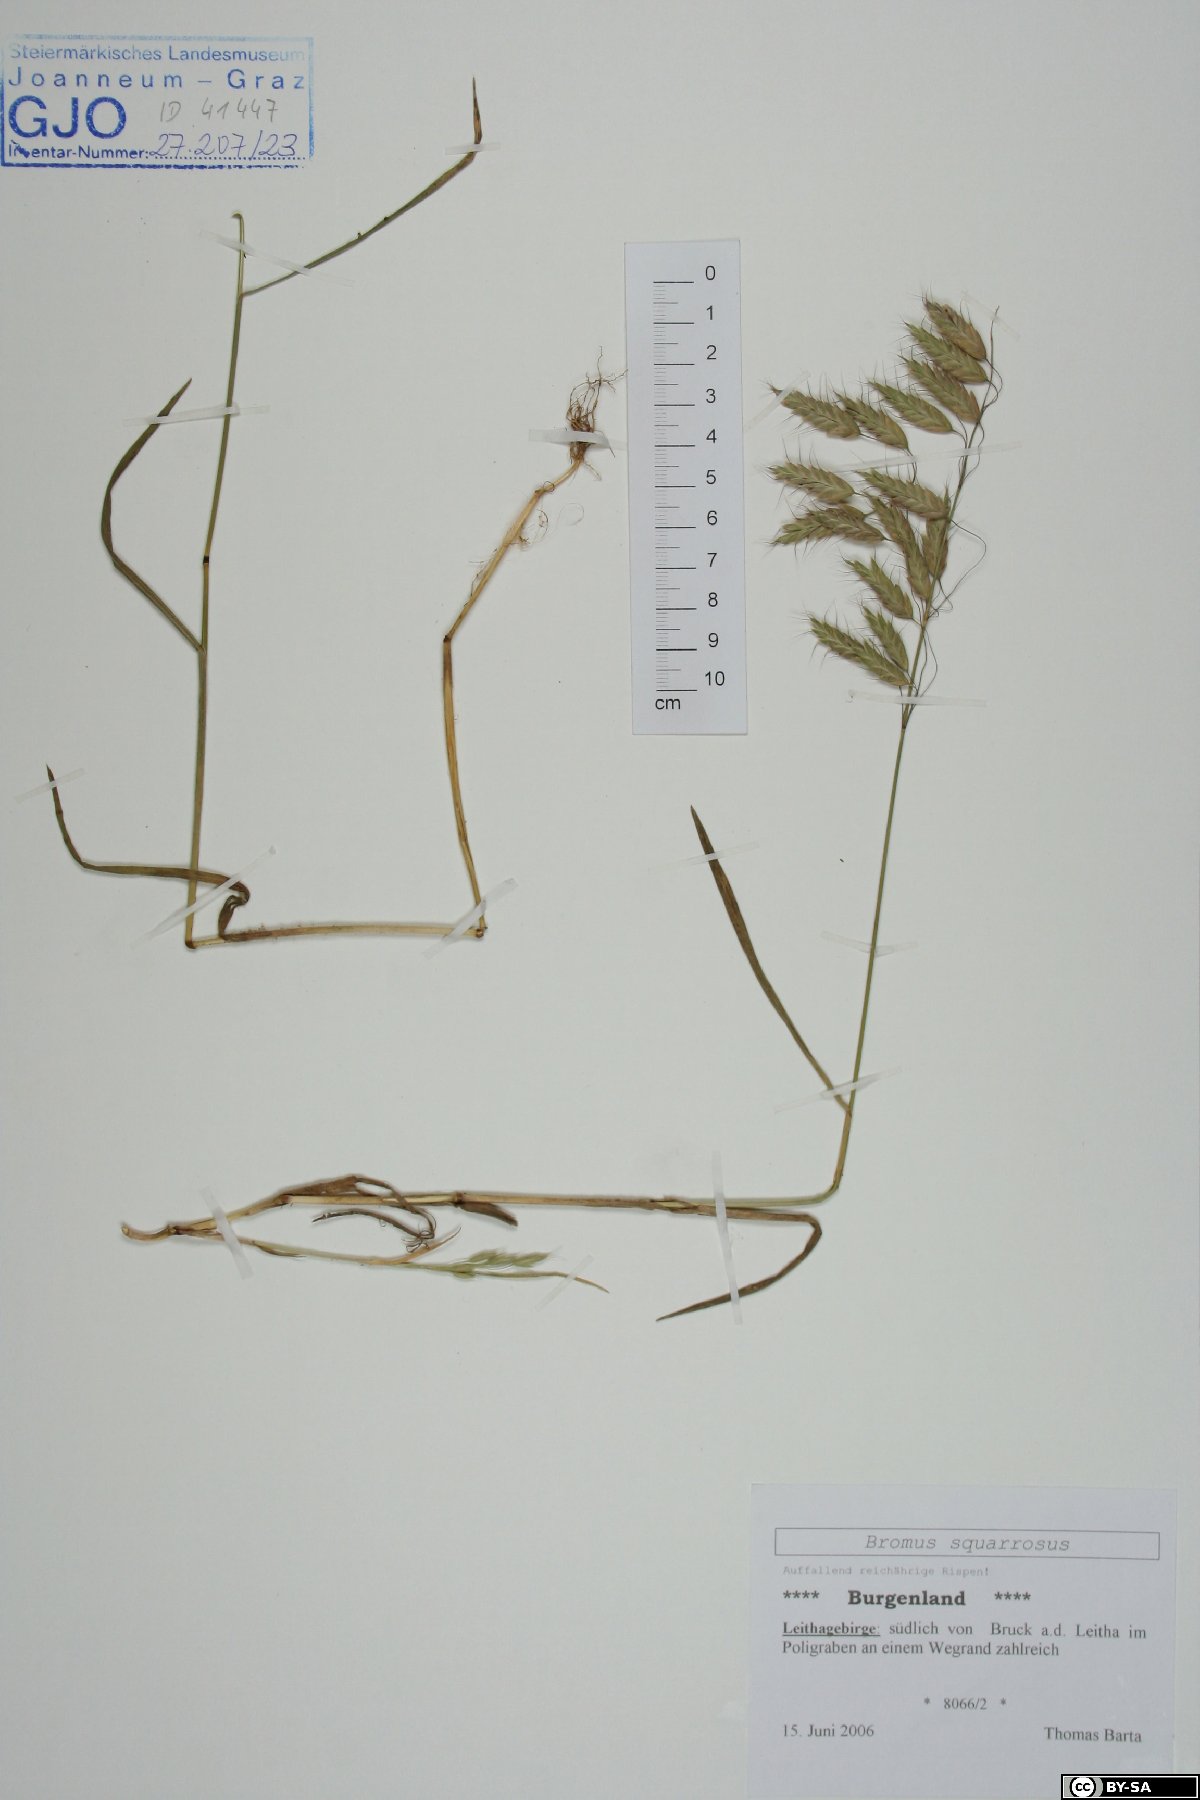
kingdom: Plantae
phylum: Tracheophyta
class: Liliopsida
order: Poales
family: Poaceae
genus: Bromus
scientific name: Bromus squarrosus
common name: Corn brome
